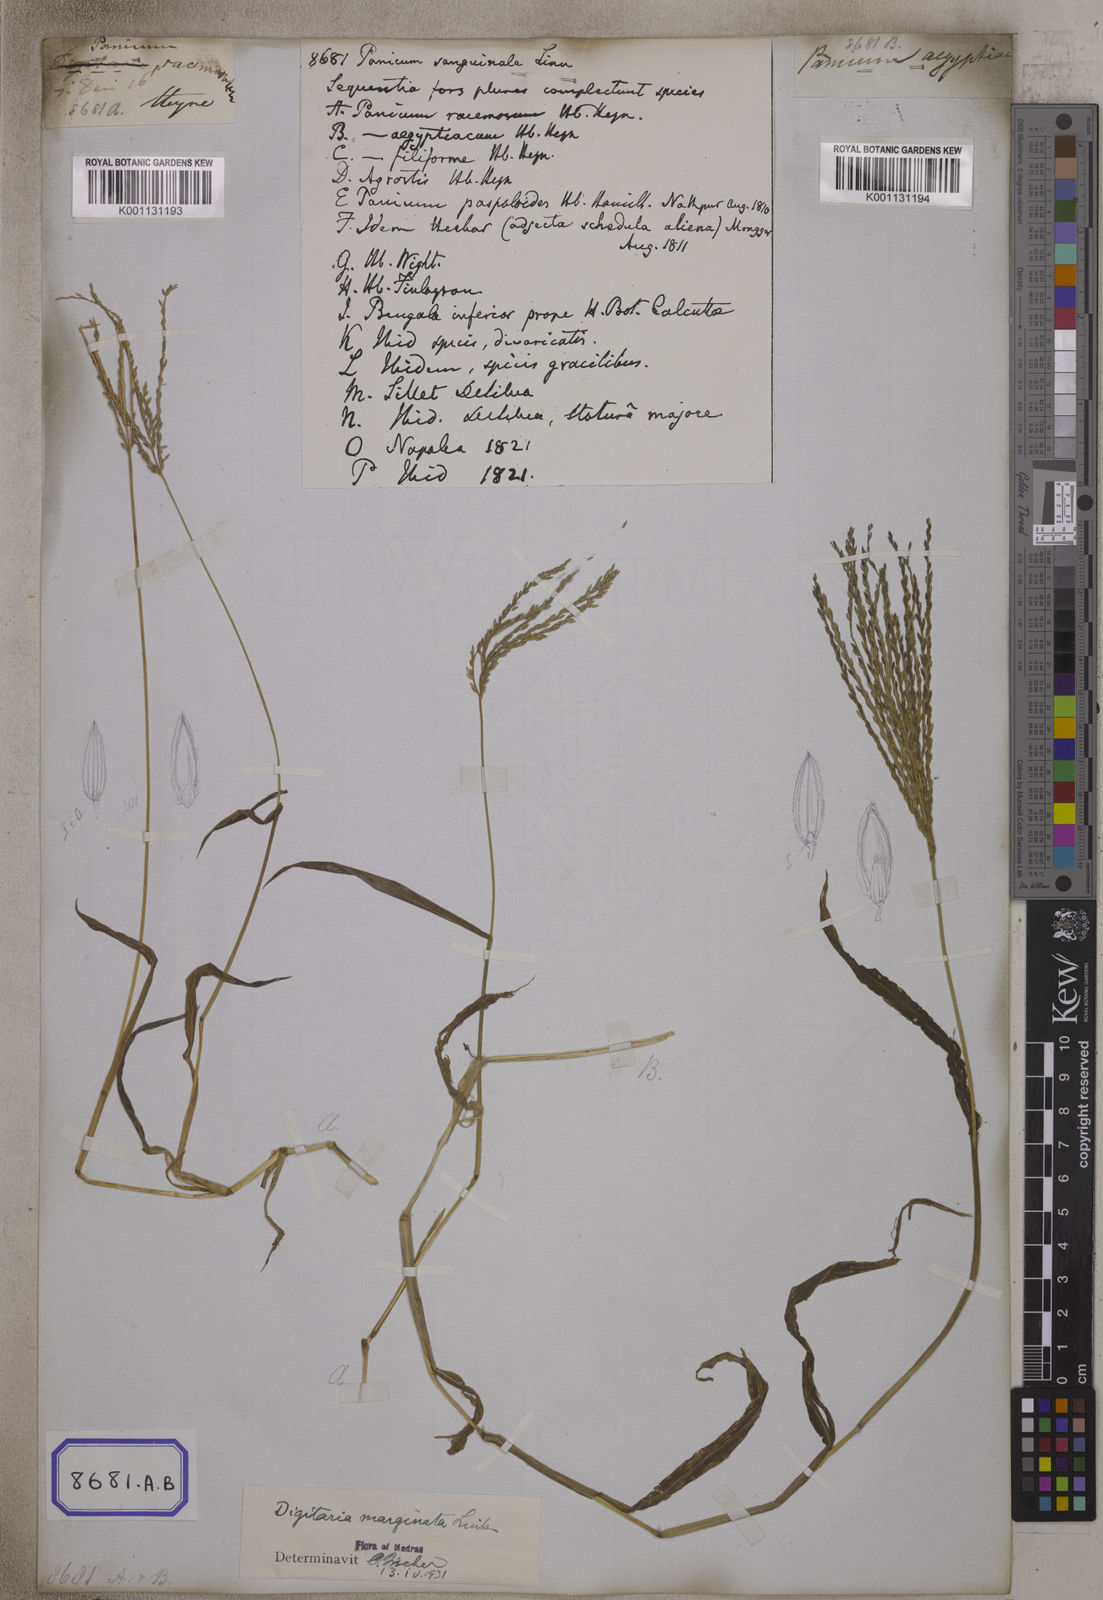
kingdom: Plantae
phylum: Tracheophyta
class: Liliopsida
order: Poales
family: Poaceae
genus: Digitaria
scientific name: Digitaria sanguinalis
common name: Hairy crabgrass
